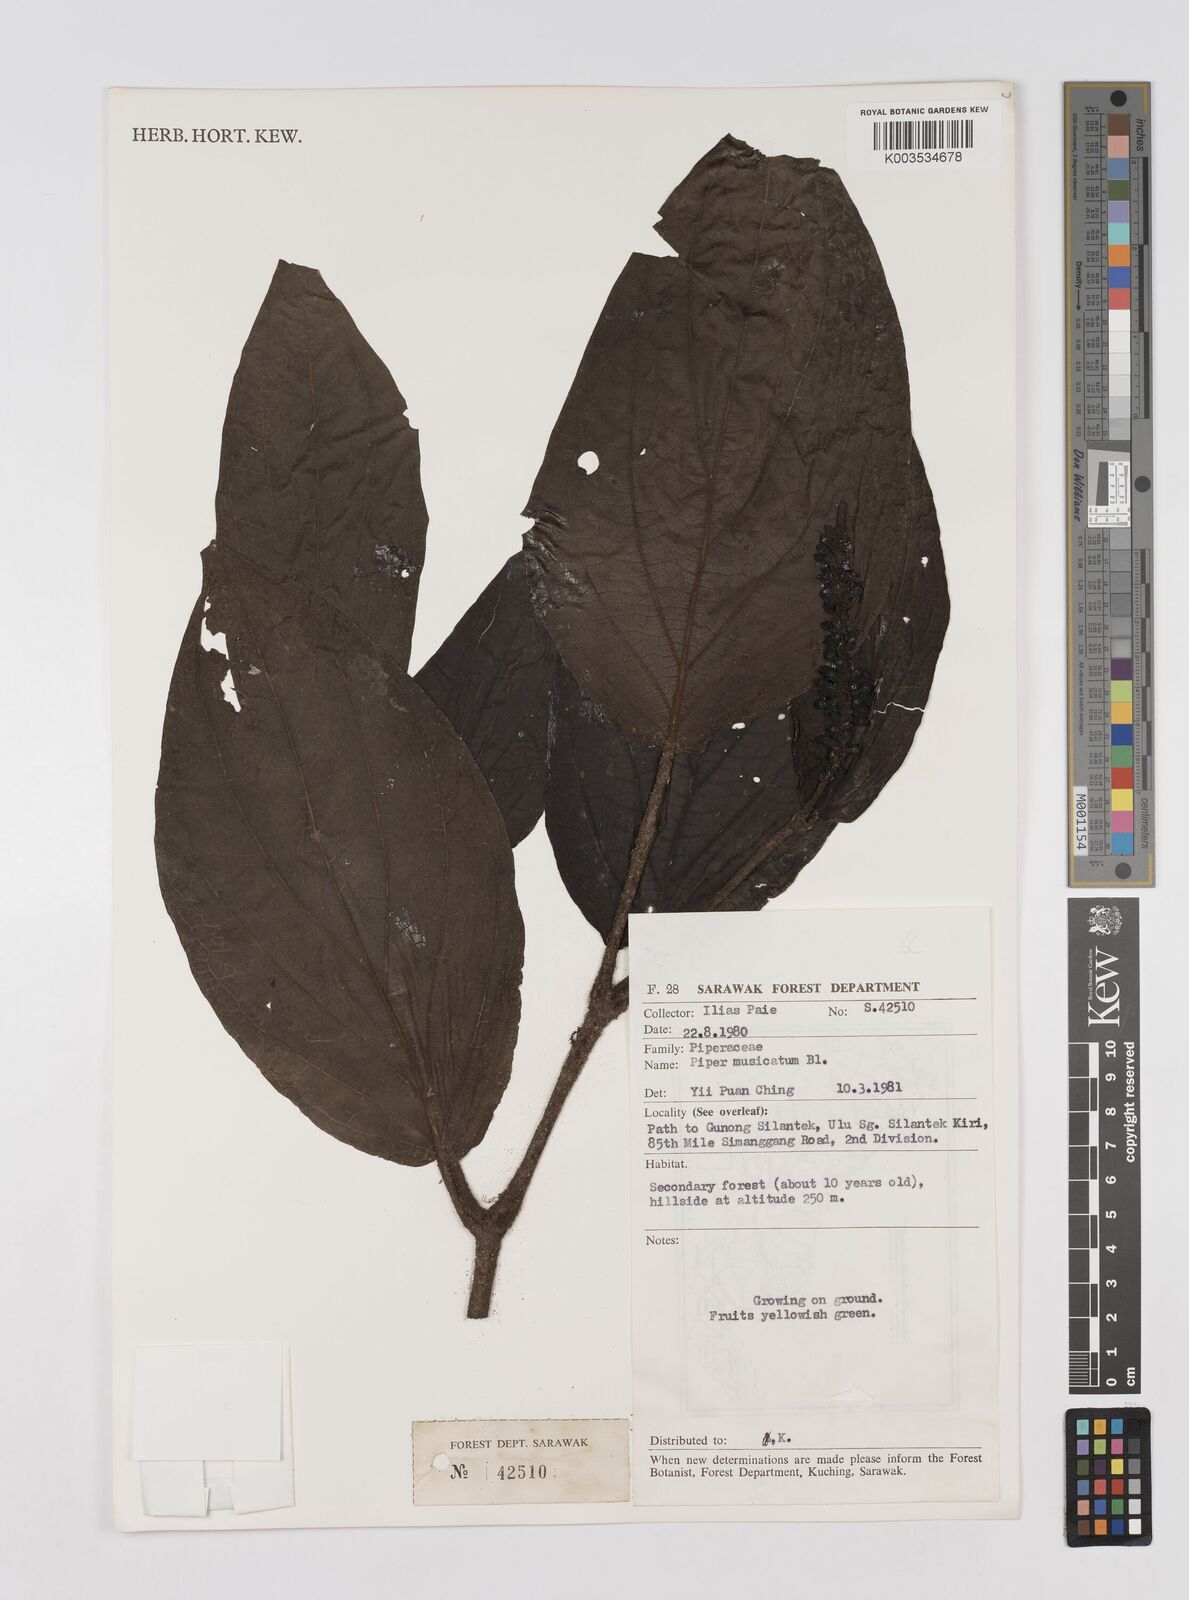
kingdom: Plantae
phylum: Tracheophyta
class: Magnoliopsida
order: Piperales
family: Piperaceae
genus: Piper
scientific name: Piper muricatum
